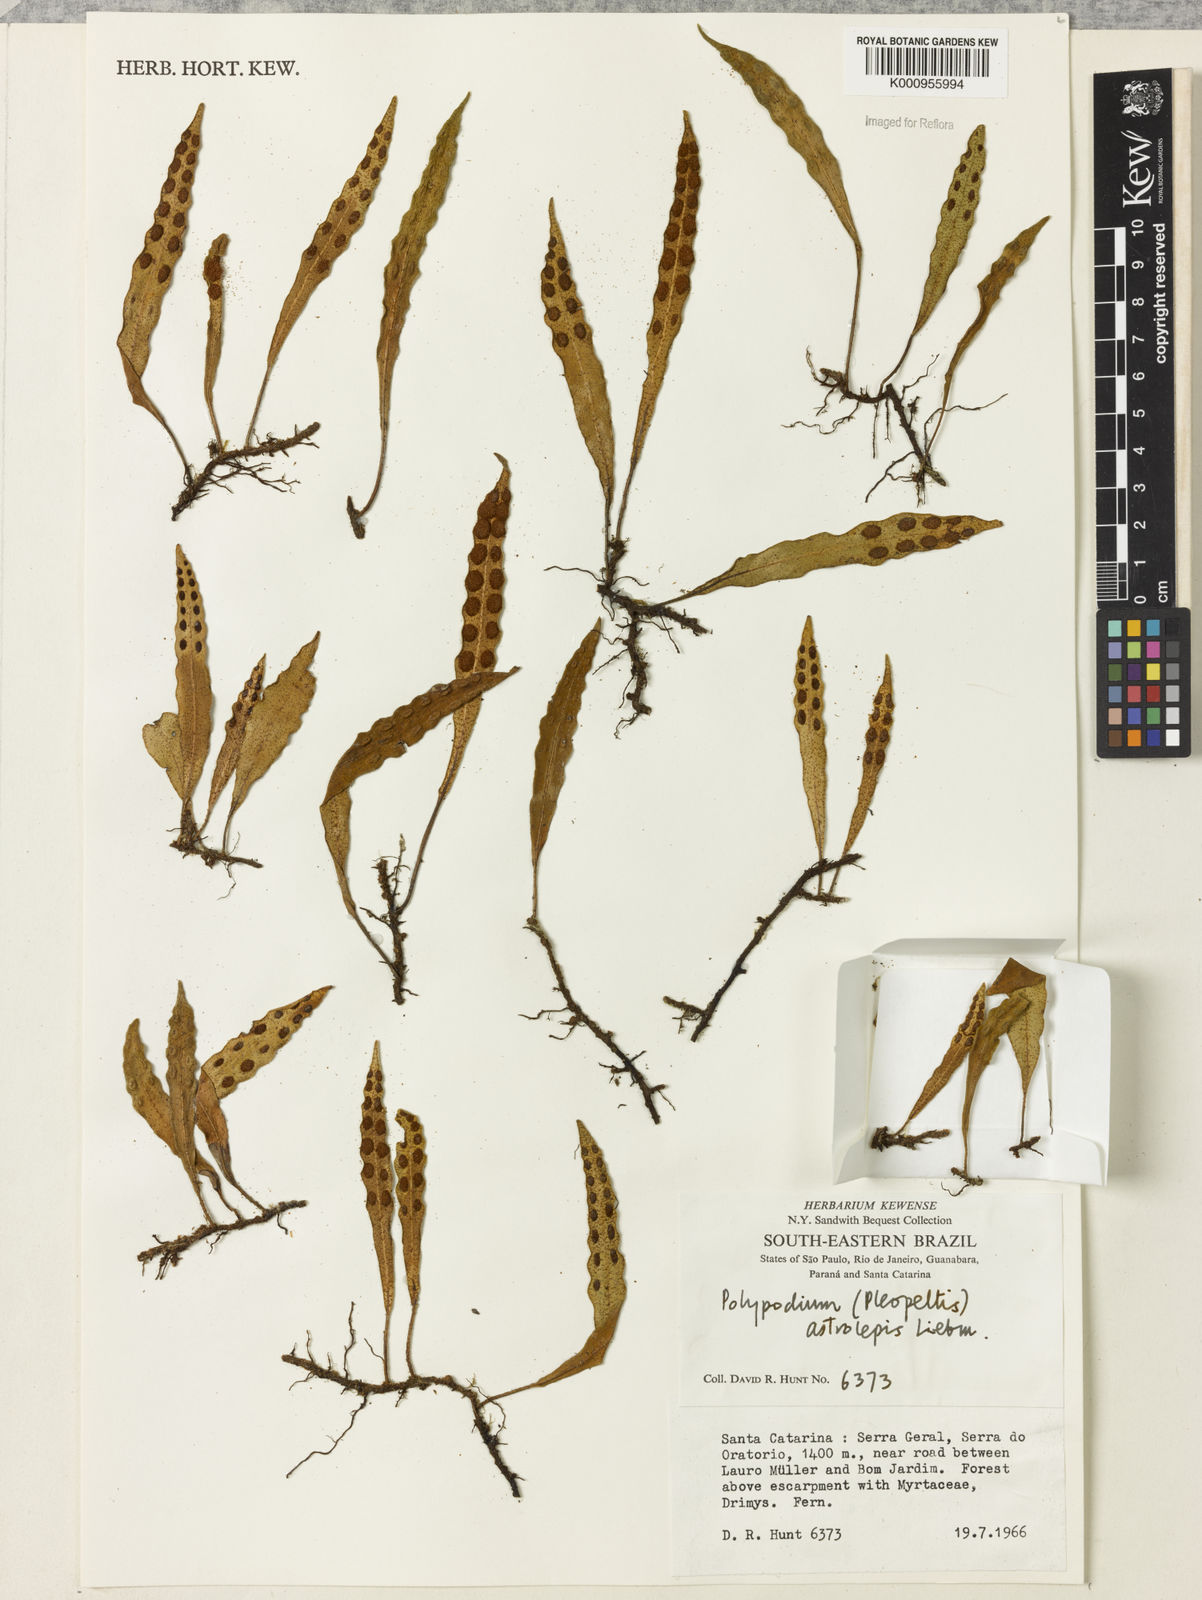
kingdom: Plantae
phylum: Tracheophyta
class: Polypodiopsida
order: Polypodiales
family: Polypodiaceae
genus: Pleopeltis
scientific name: Pleopeltis astrolepis
